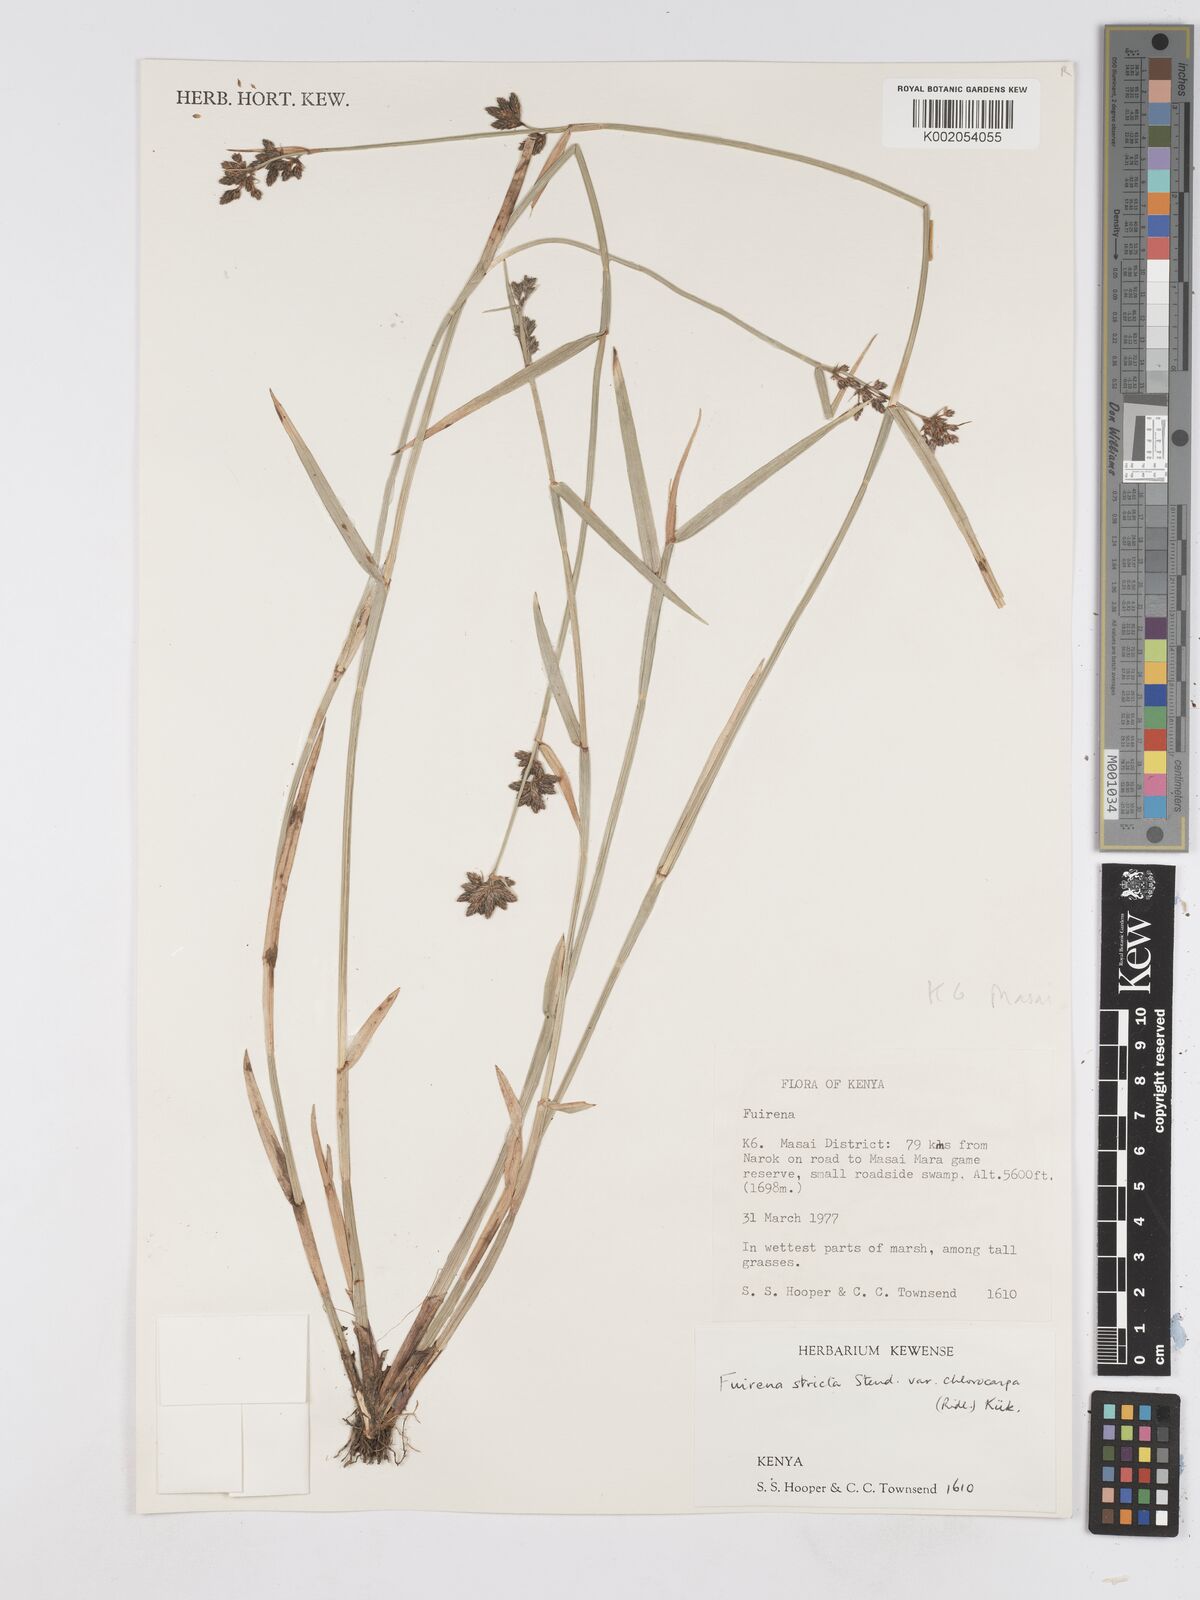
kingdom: Plantae
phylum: Tracheophyta
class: Liliopsida
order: Poales
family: Cyperaceae
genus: Fuirena
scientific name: Fuirena stricta
